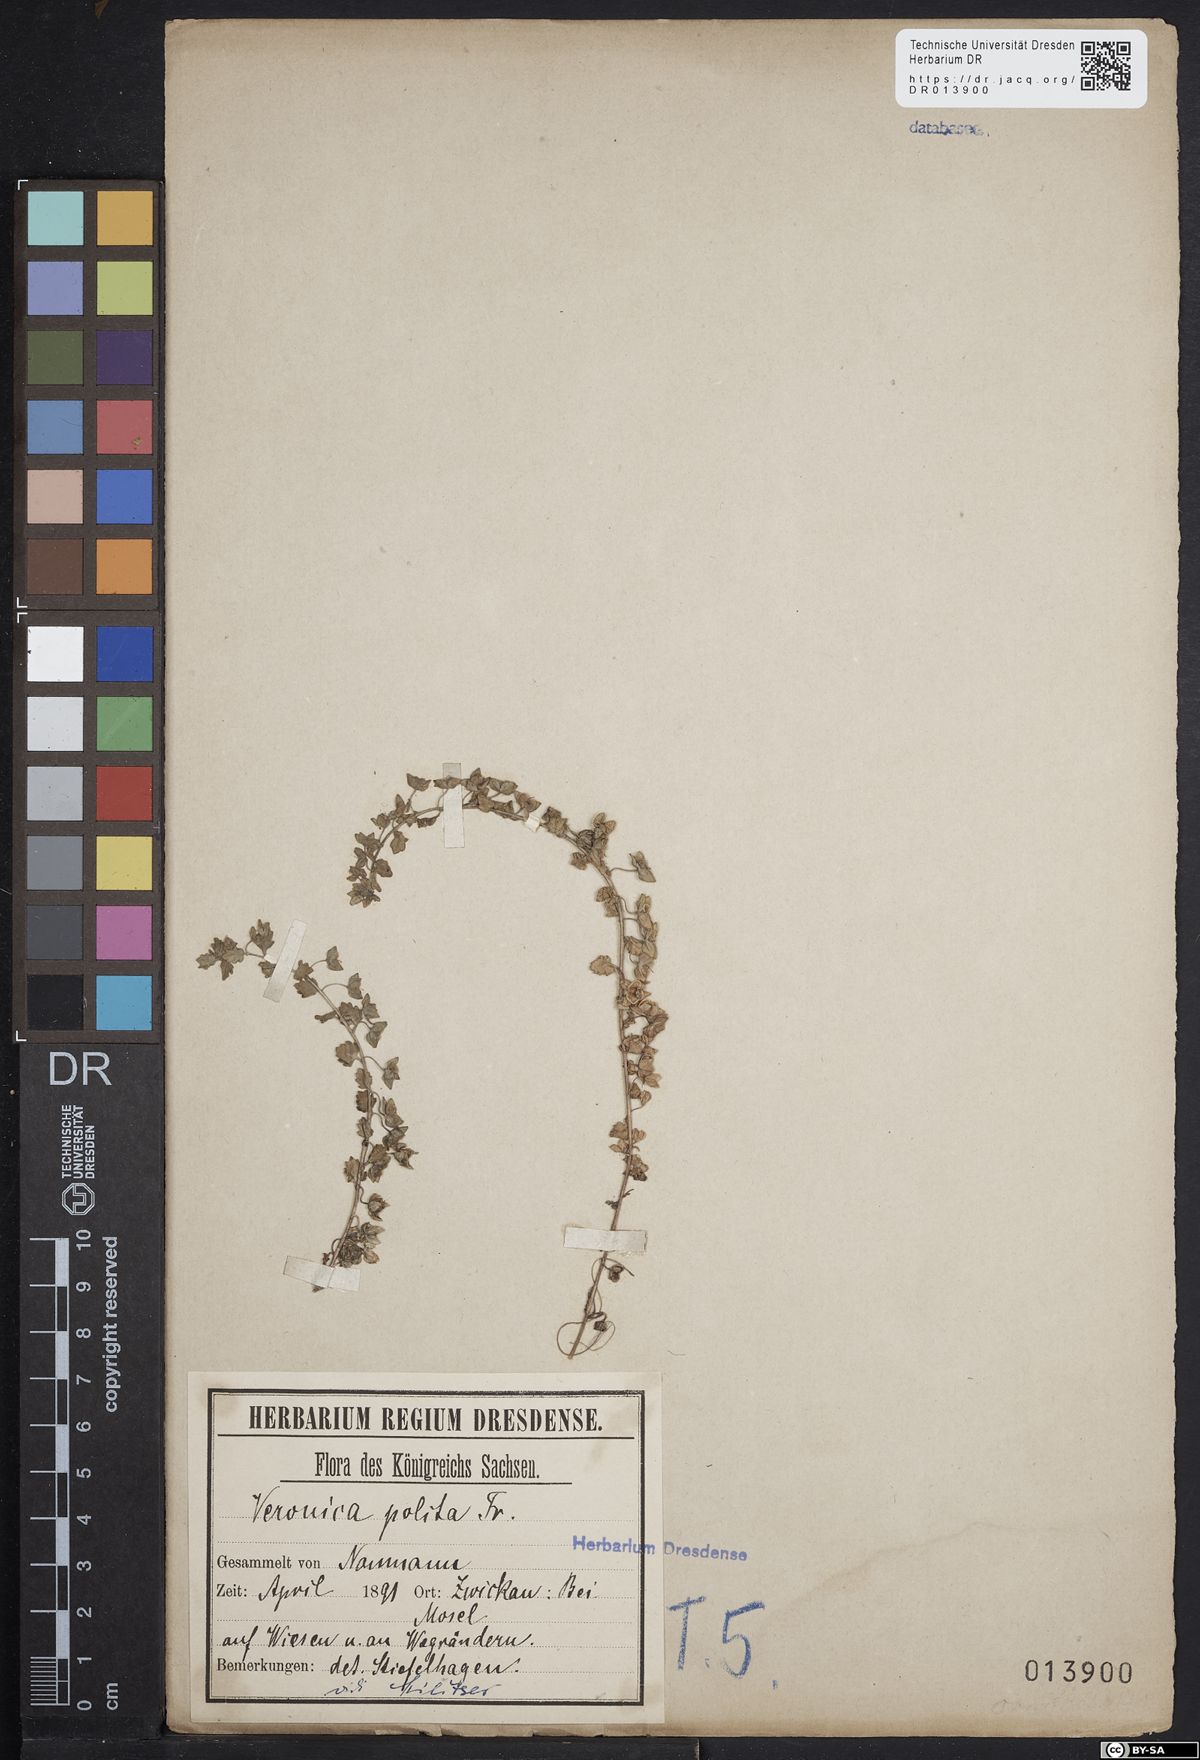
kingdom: Plantae
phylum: Tracheophyta
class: Magnoliopsida
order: Lamiales
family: Plantaginaceae
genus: Veronica
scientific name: Veronica polita
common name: Grey field-speedwell
